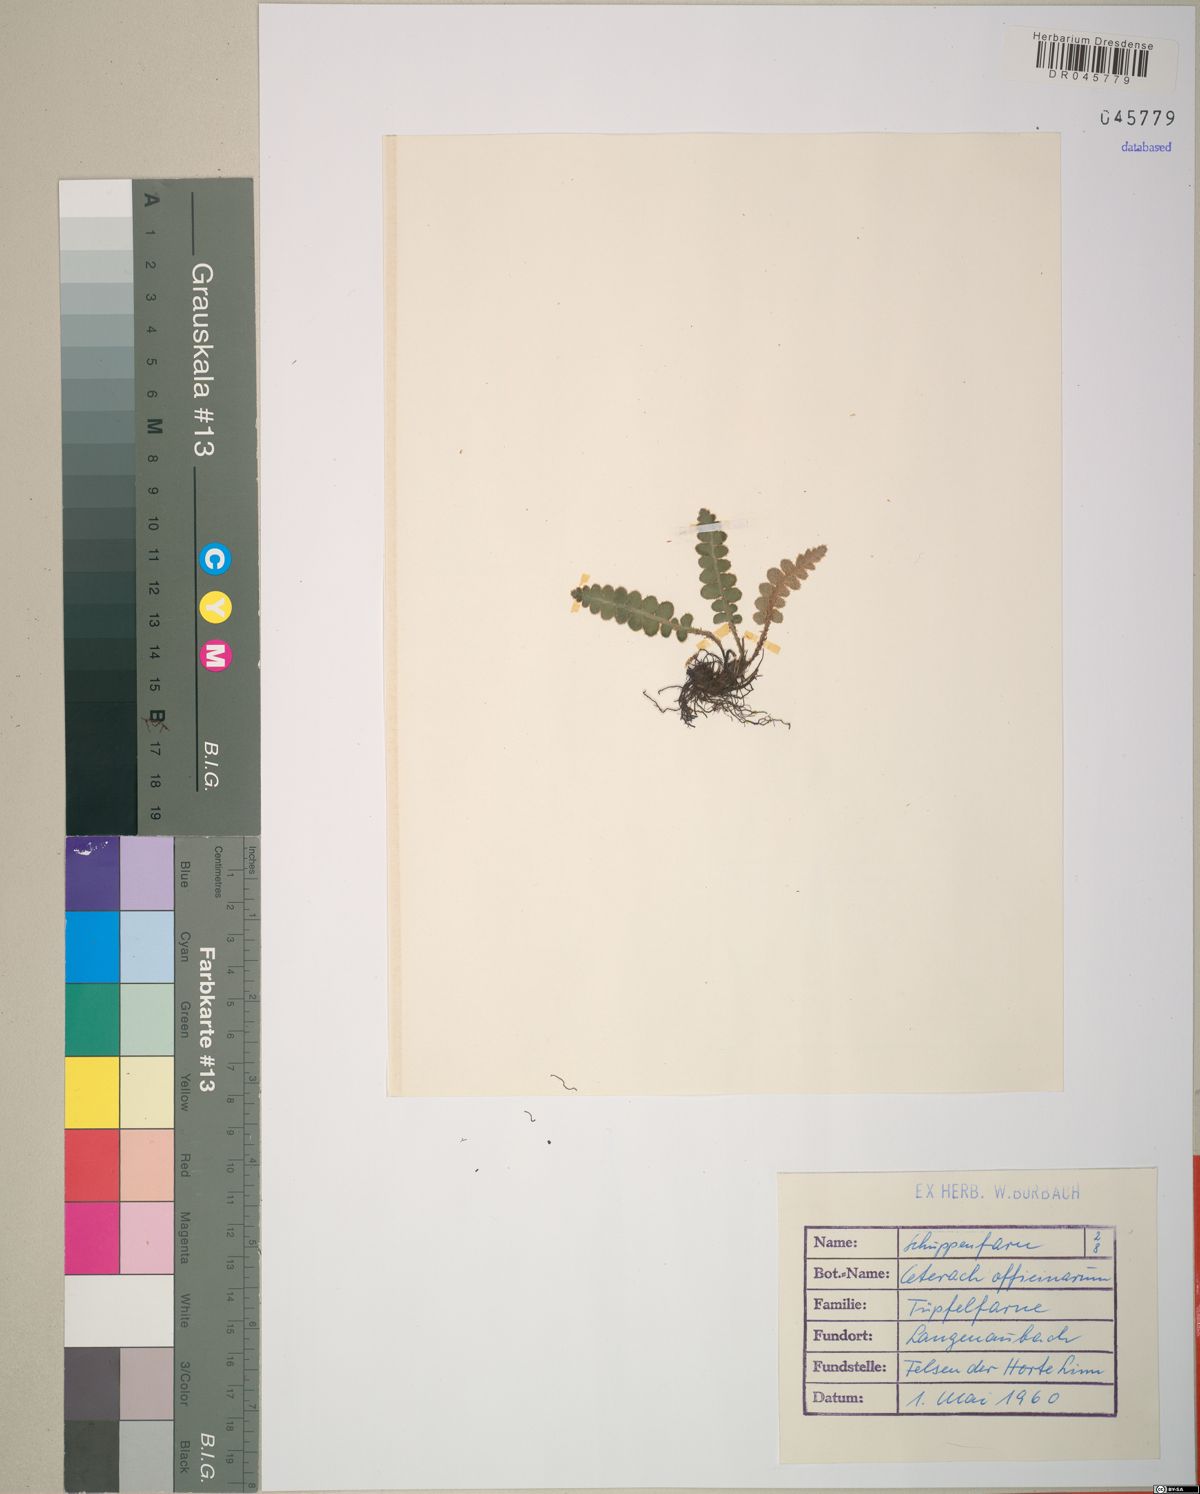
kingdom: Plantae
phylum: Tracheophyta
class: Polypodiopsida
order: Polypodiales
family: Aspleniaceae
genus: Asplenium
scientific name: Asplenium ceterach
